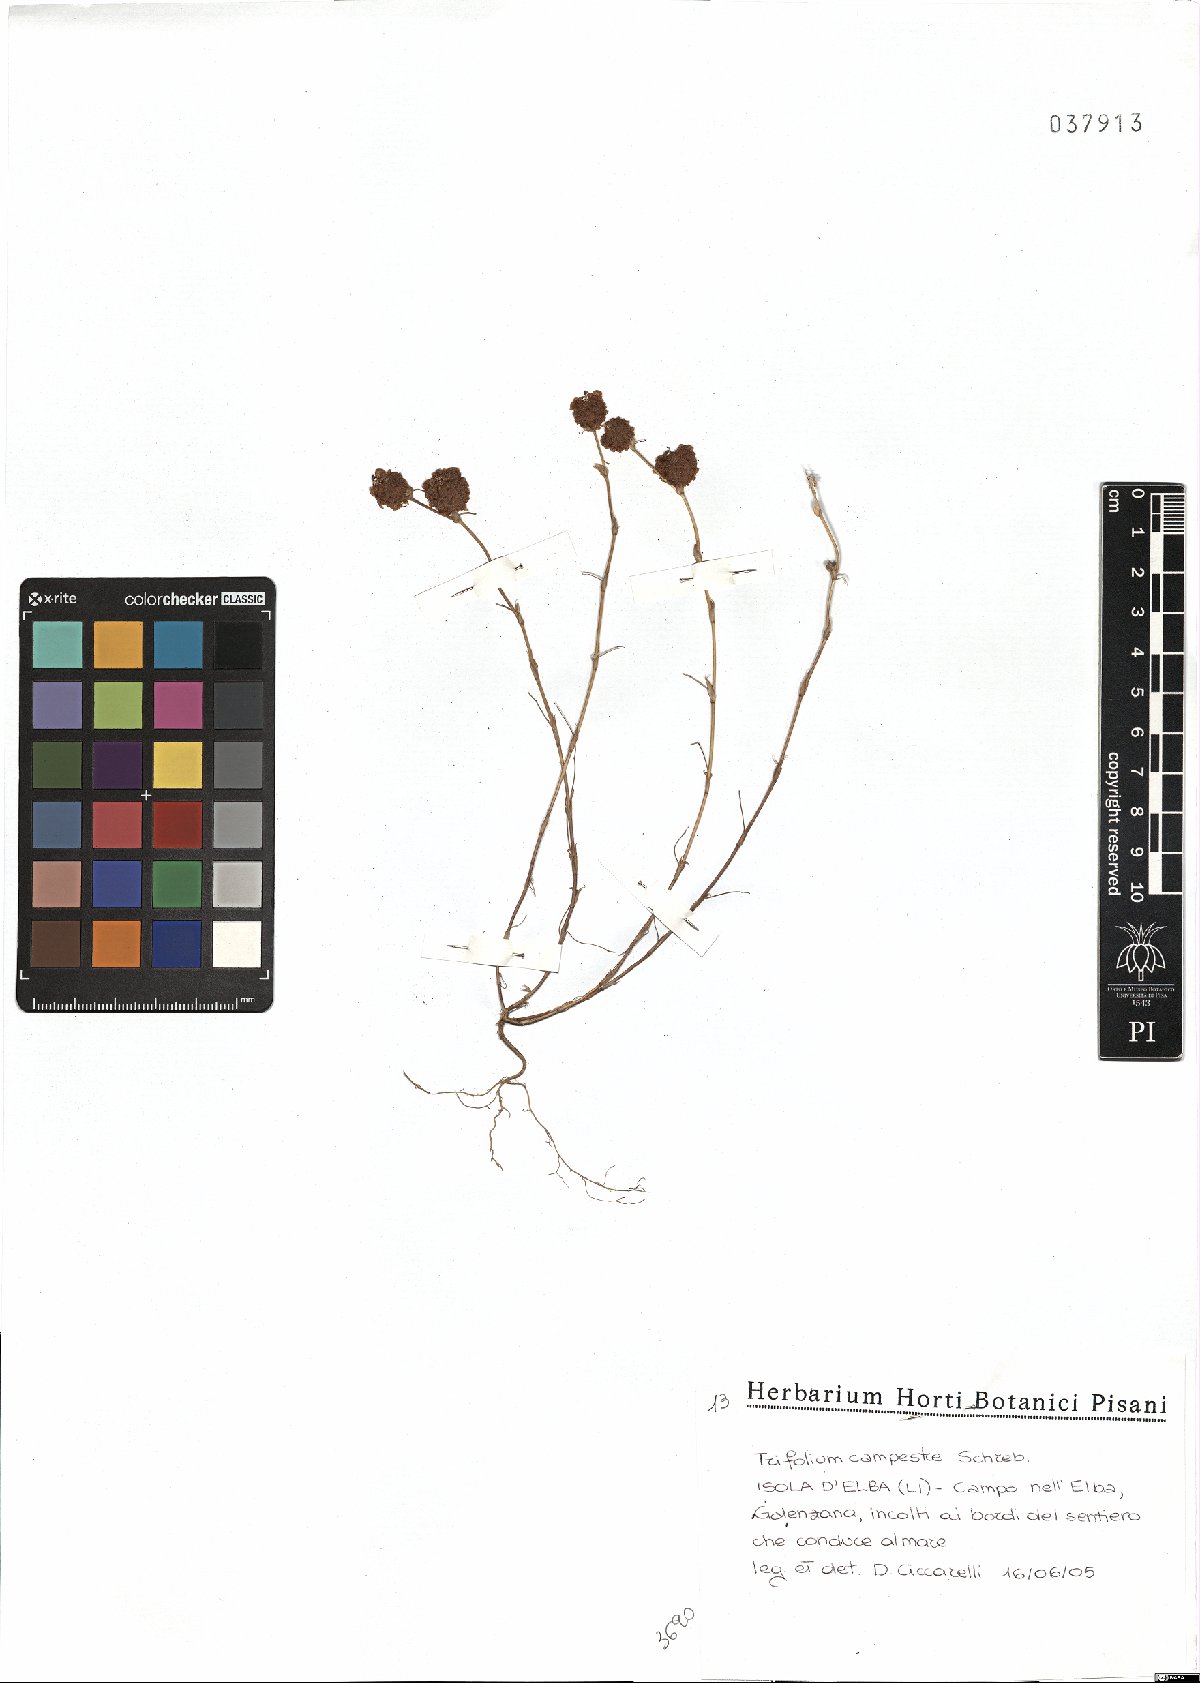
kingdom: Plantae
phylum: Tracheophyta
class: Magnoliopsida
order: Fabales
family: Fabaceae
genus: Trifolium
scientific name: Trifolium campestre
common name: Field clover
